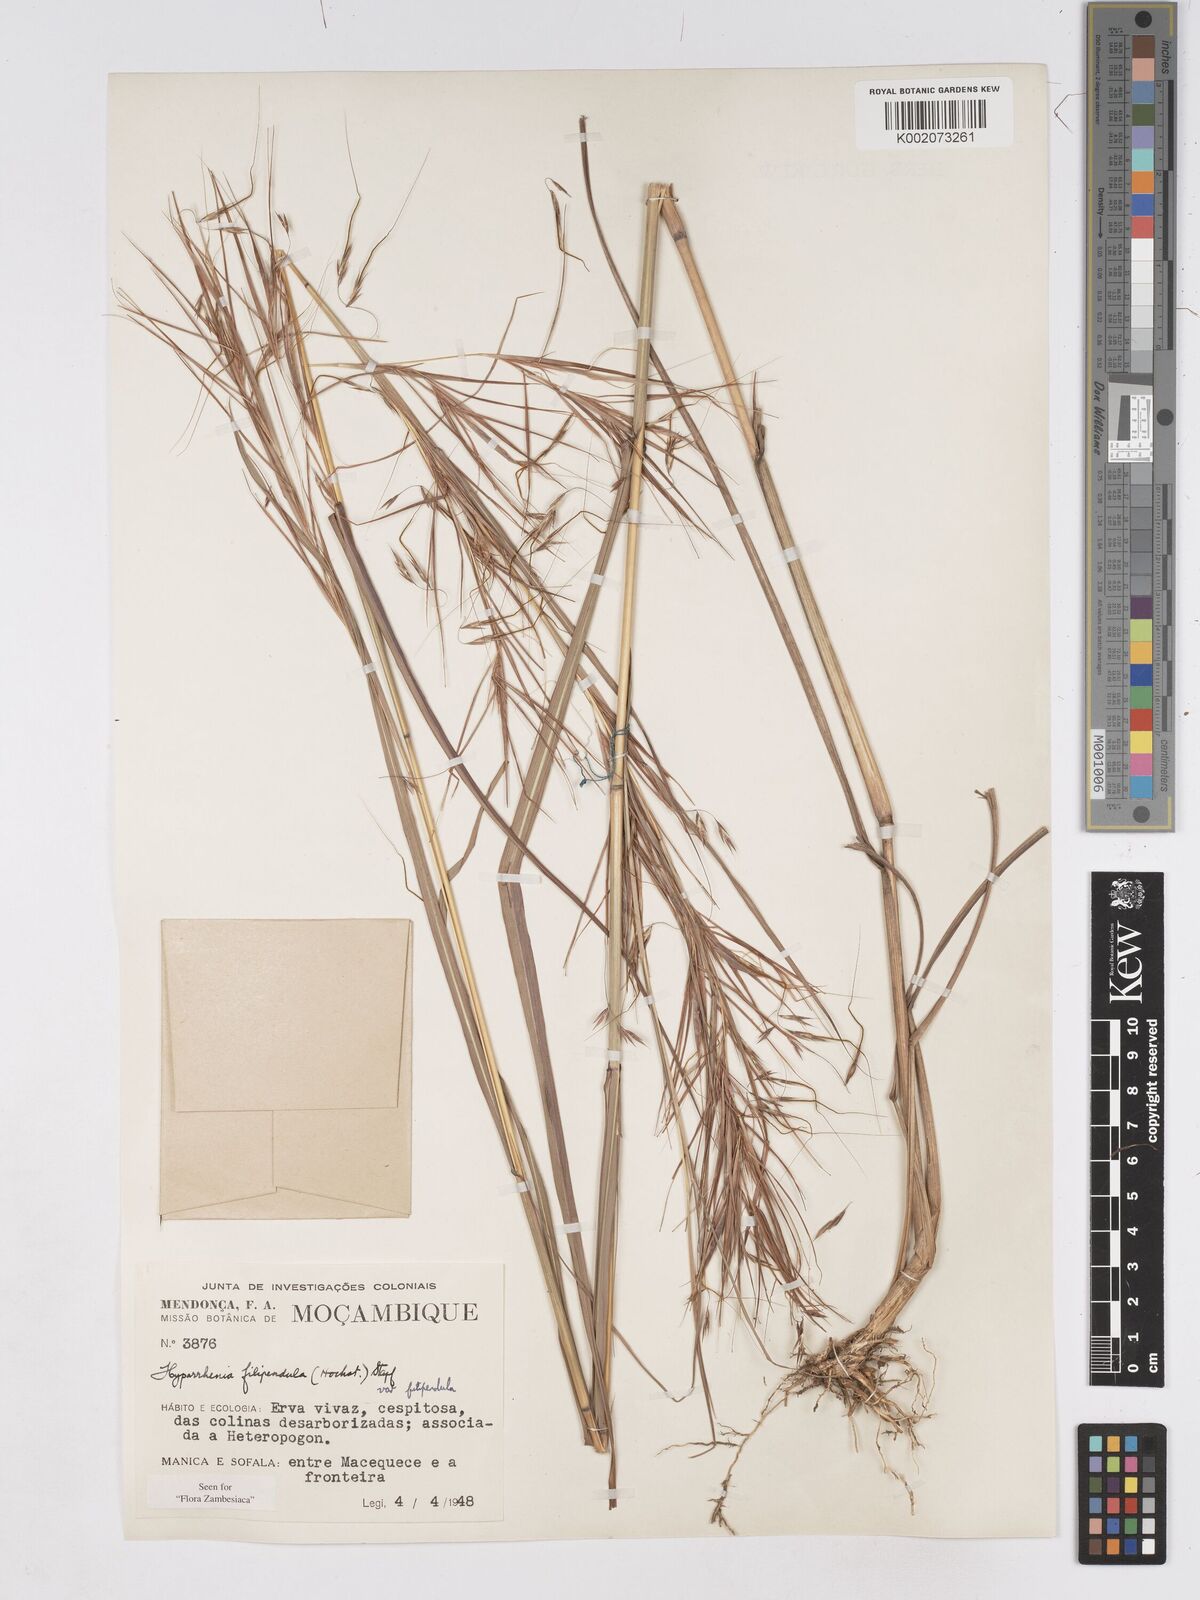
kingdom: Plantae
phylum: Tracheophyta
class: Liliopsida
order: Poales
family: Poaceae
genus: Hyparrhenia
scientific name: Hyparrhenia filipendula
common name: Tambookie grass
